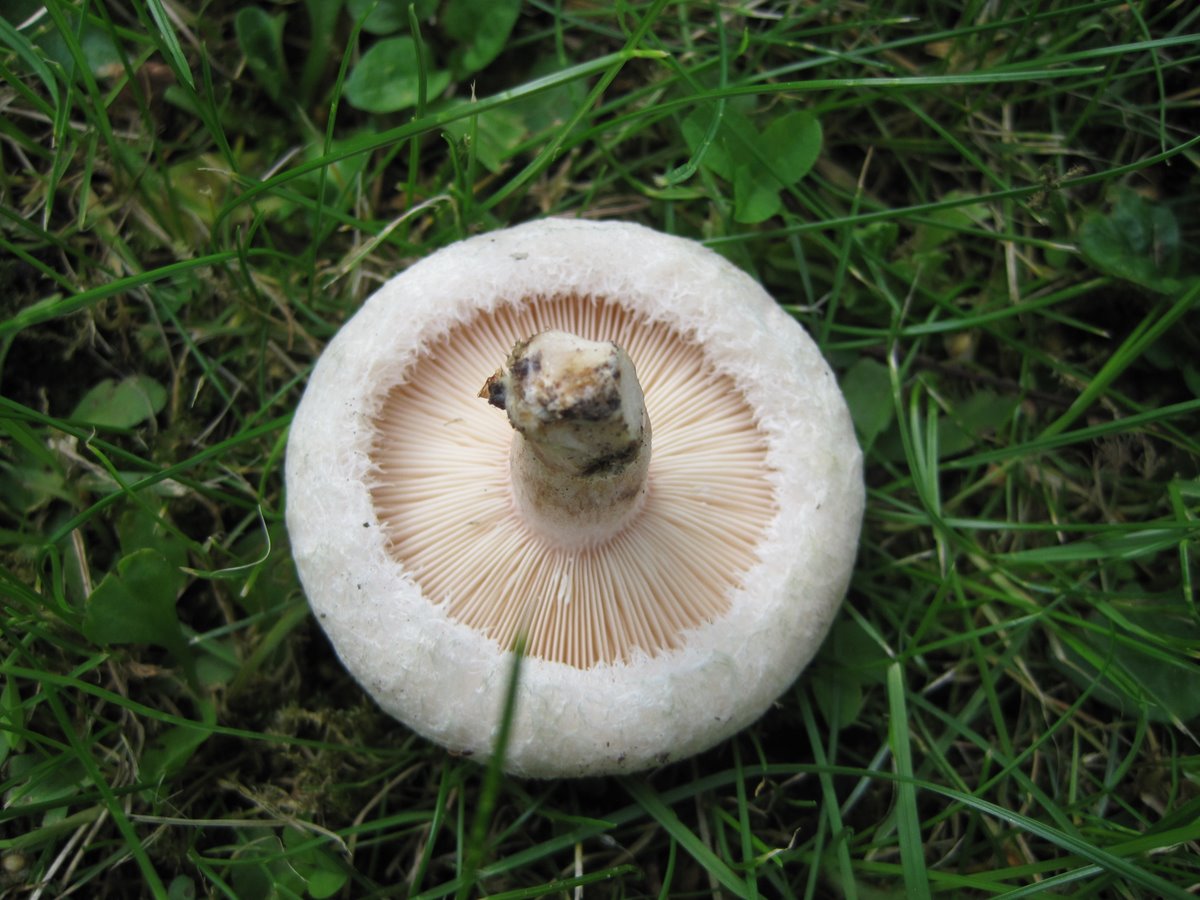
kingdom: Fungi
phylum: Basidiomycota
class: Agaricomycetes
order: Russulales
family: Russulaceae
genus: Lactarius
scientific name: Lactarius pubescens
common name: dunet mælkehat
